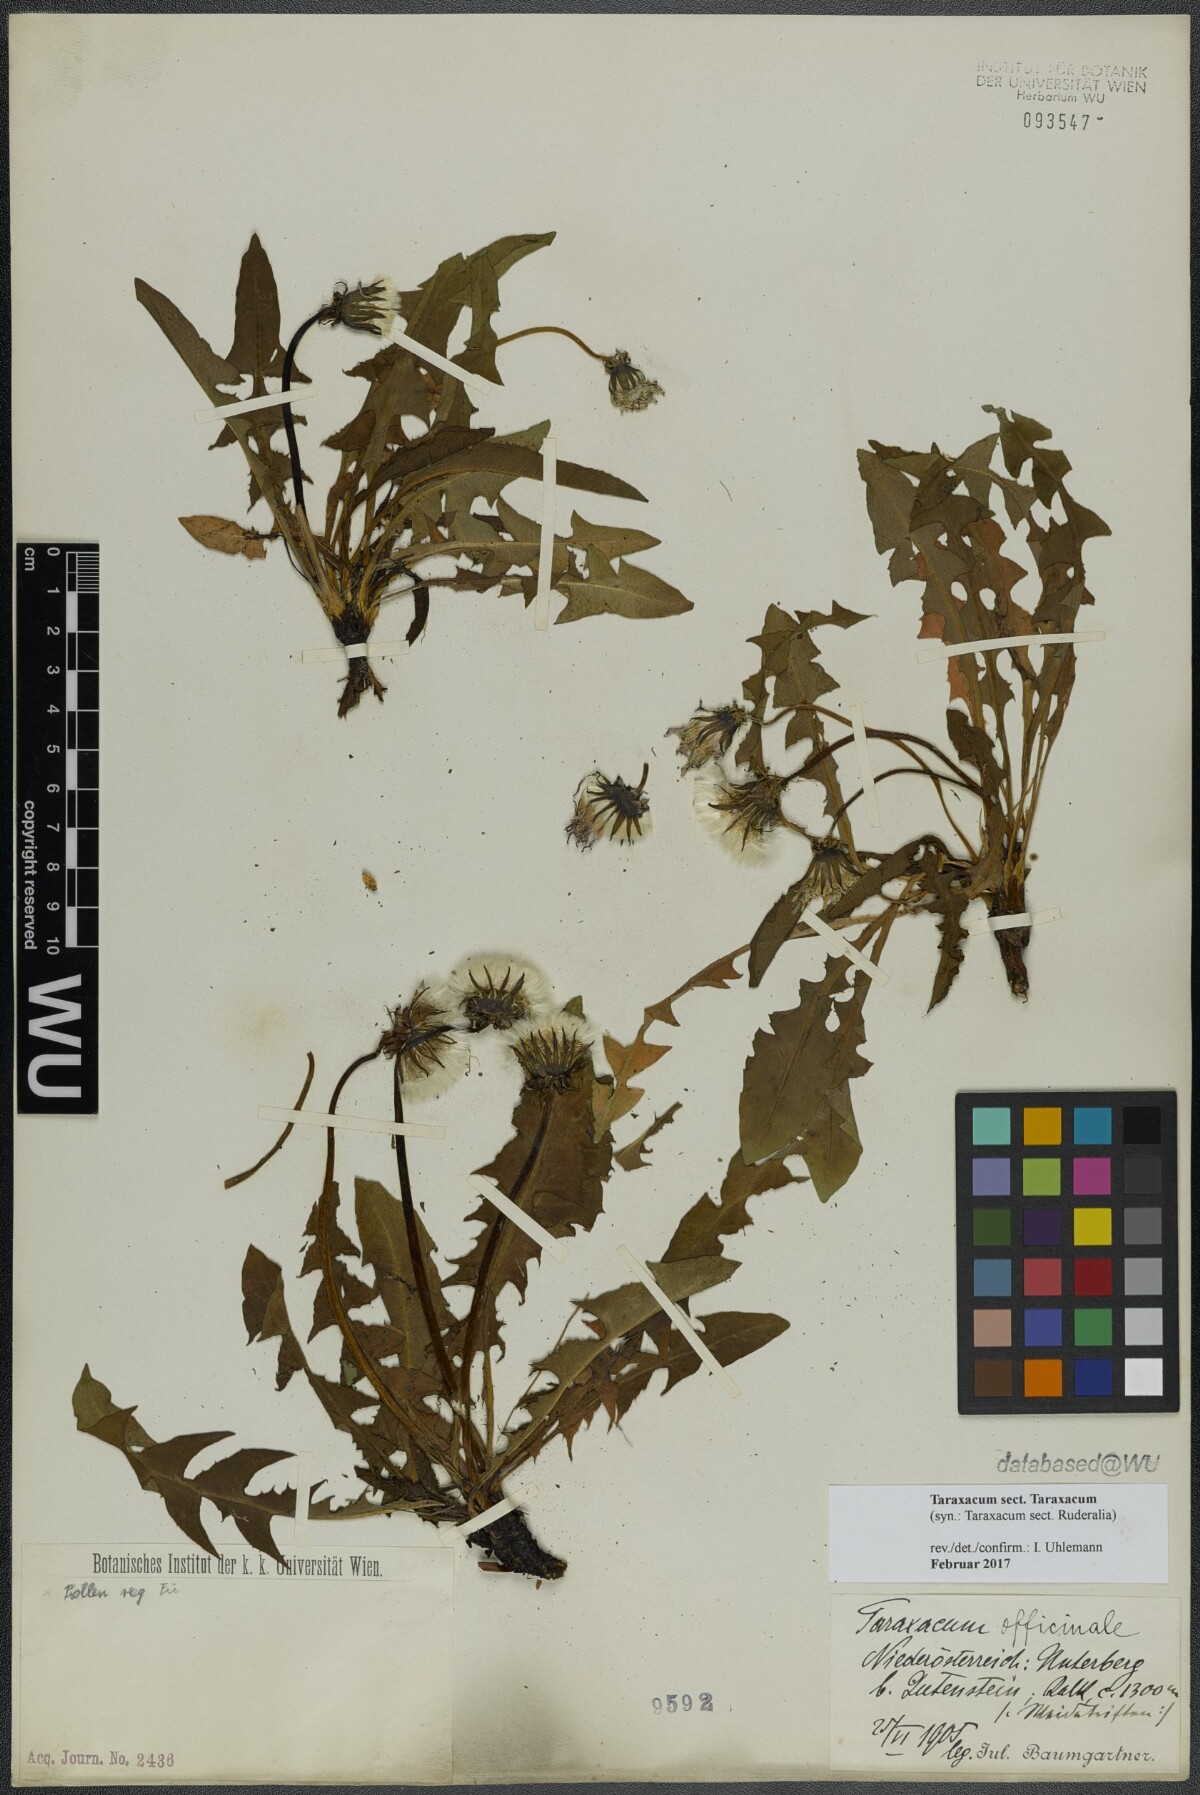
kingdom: Plantae
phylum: Tracheophyta
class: Magnoliopsida
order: Asterales
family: Asteraceae
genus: Taraxacum
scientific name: Taraxacum
